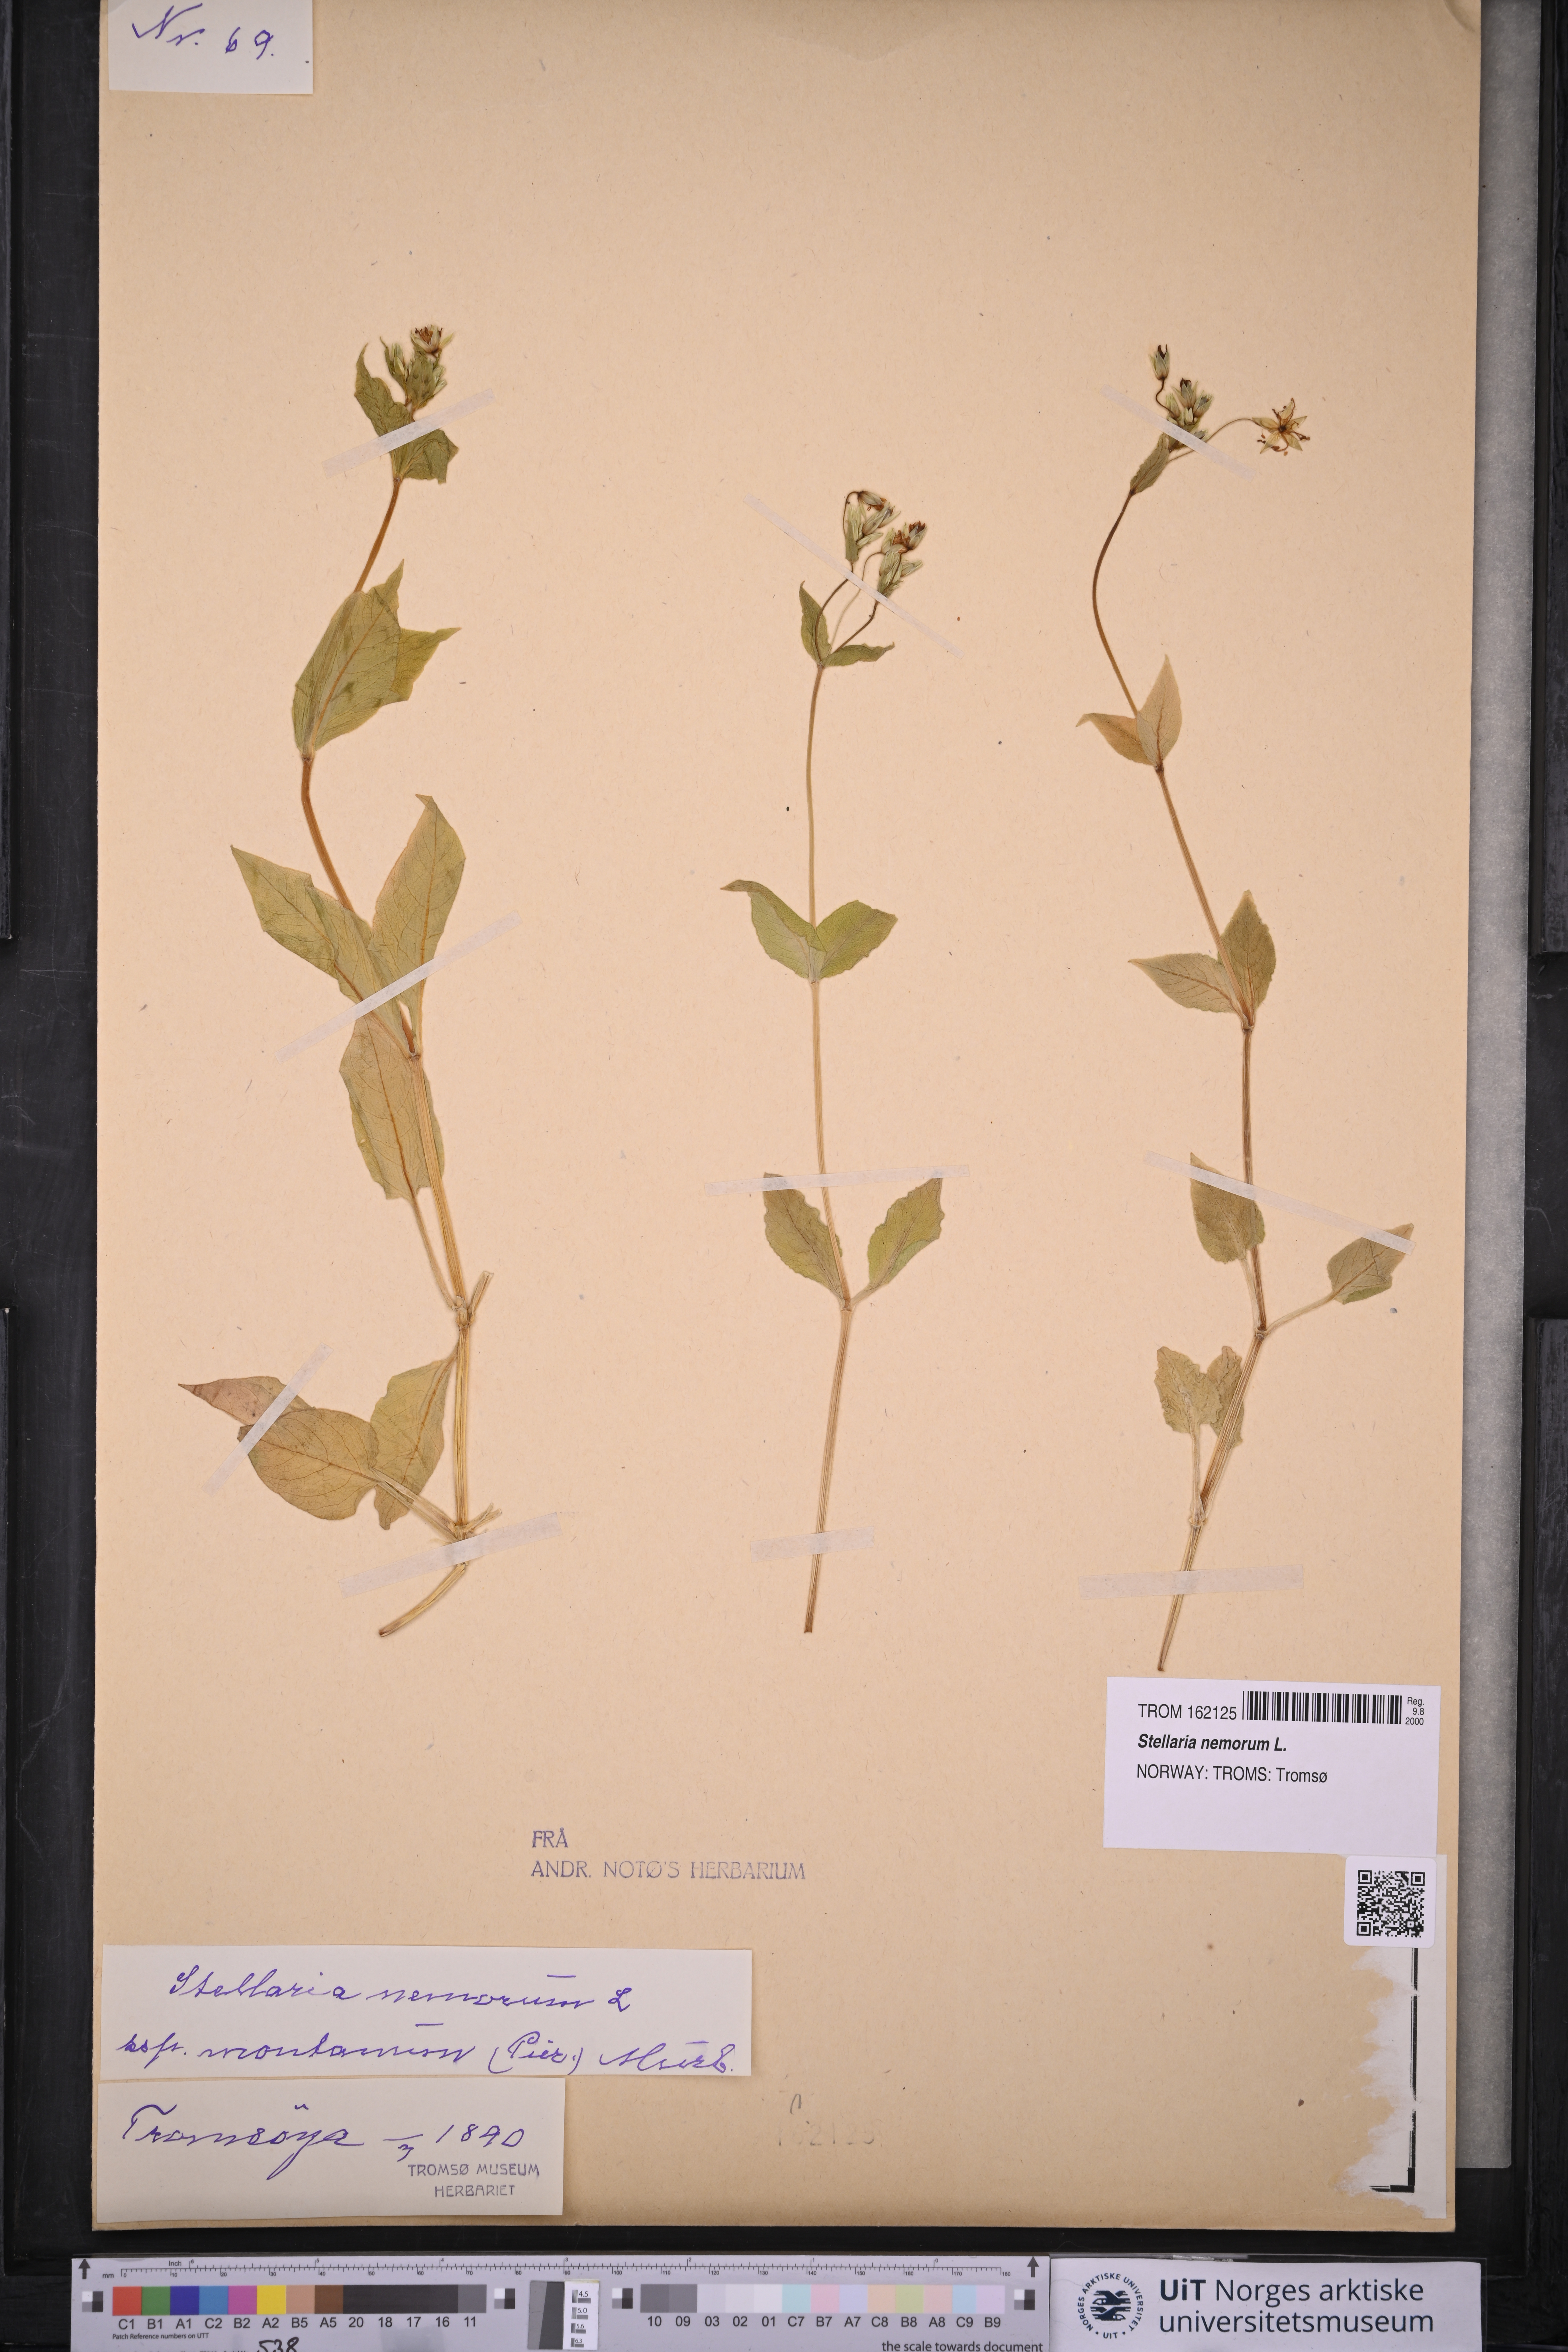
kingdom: Plantae
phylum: Tracheophyta
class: Magnoliopsida
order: Caryophyllales
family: Caryophyllaceae
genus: Stellaria
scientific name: Stellaria nemorum
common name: Wood stitchwort
